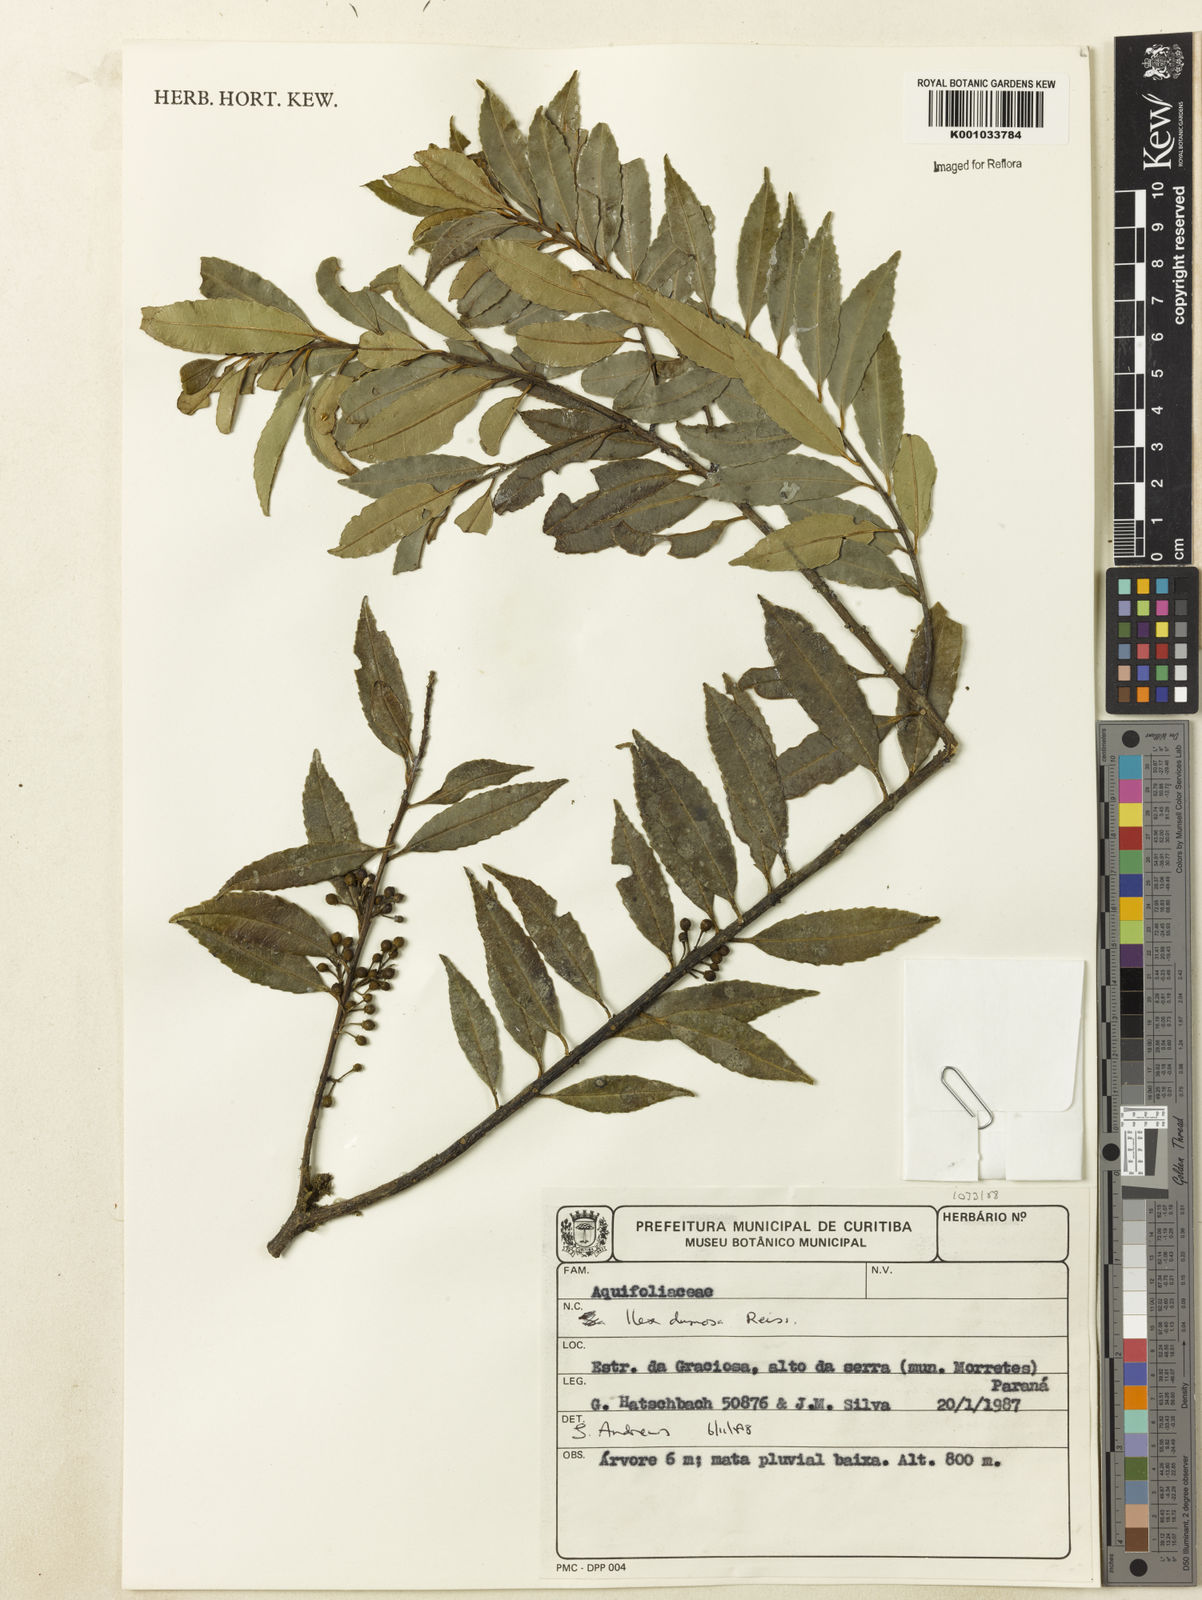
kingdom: Plantae
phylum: Tracheophyta
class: Magnoliopsida
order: Aquifoliales
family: Aquifoliaceae
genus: Ilex
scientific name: Ilex dumosa
